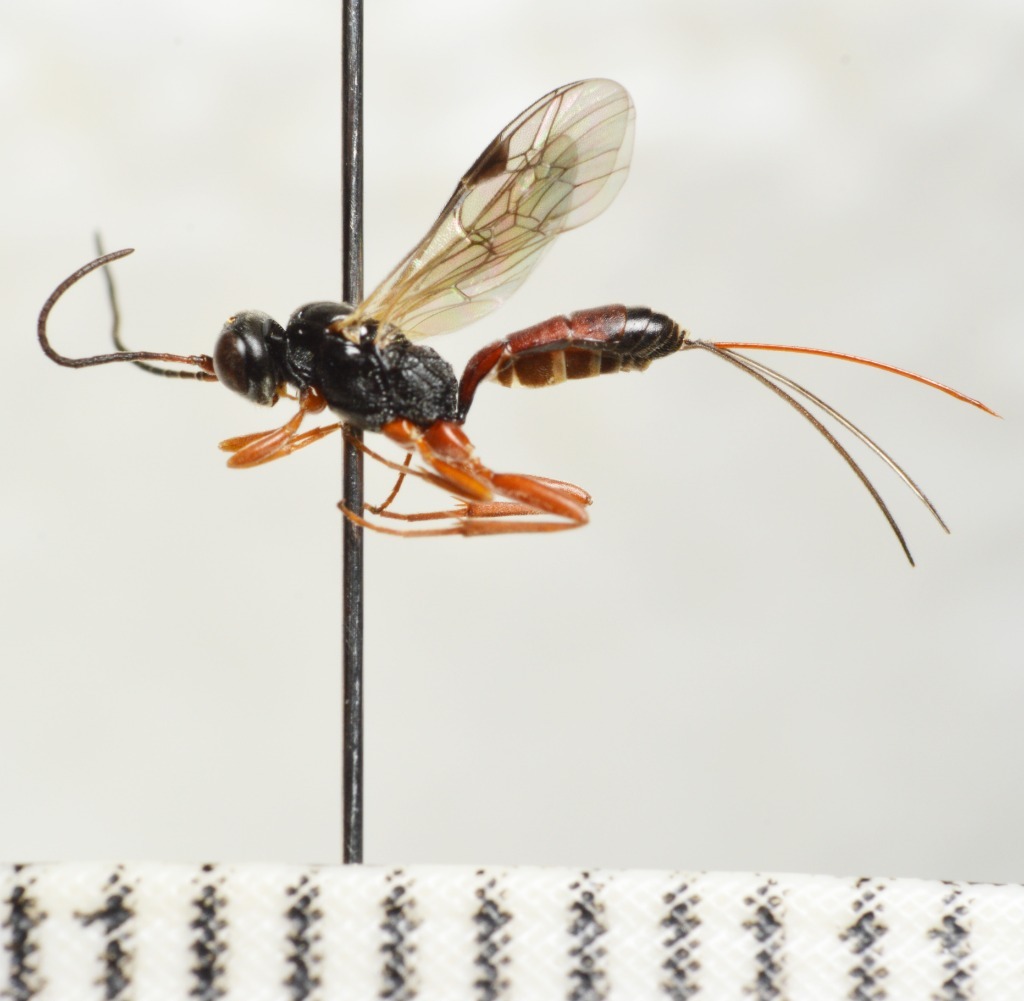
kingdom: Animalia
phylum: Arthropoda
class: Insecta
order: Hymenoptera
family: Ichneumonidae
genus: Lochetica
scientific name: Lochetica westoni
